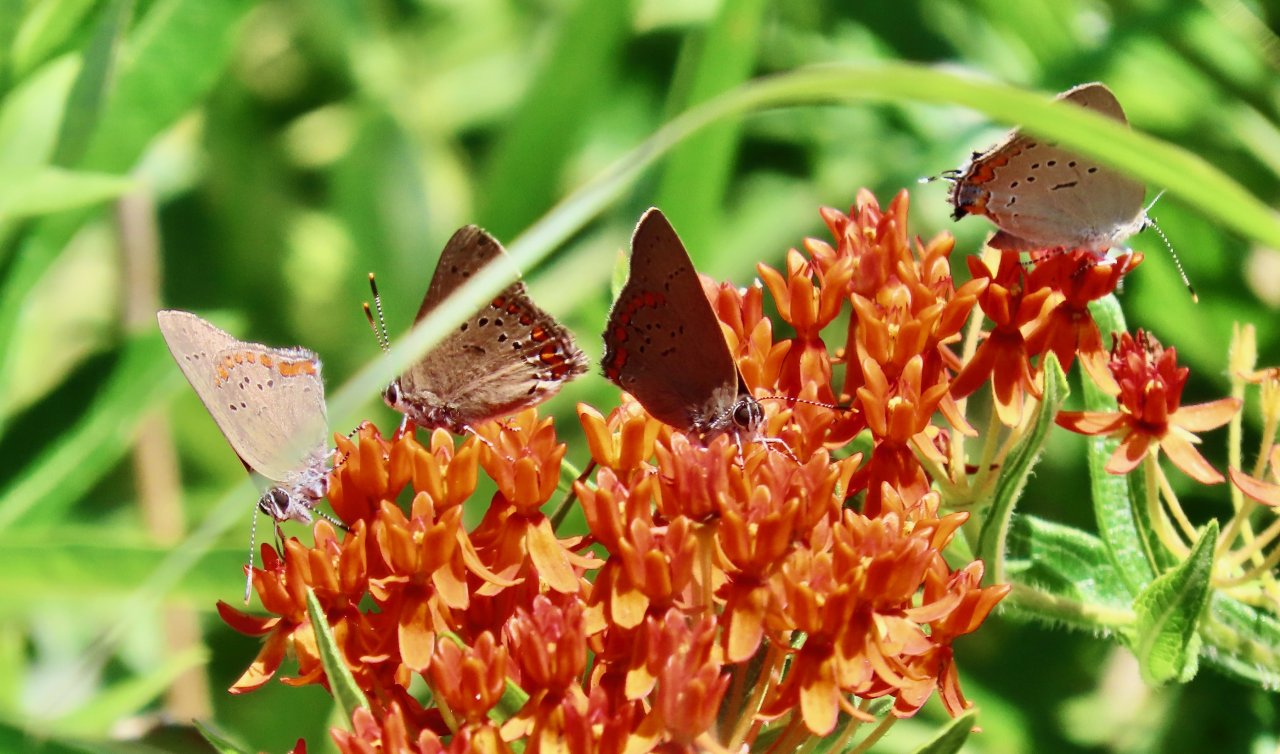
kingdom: Animalia
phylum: Arthropoda
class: Insecta
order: Lepidoptera
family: Lycaenidae
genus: Harkenclenus
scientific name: Harkenclenus titus
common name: Coral Hairstreak
